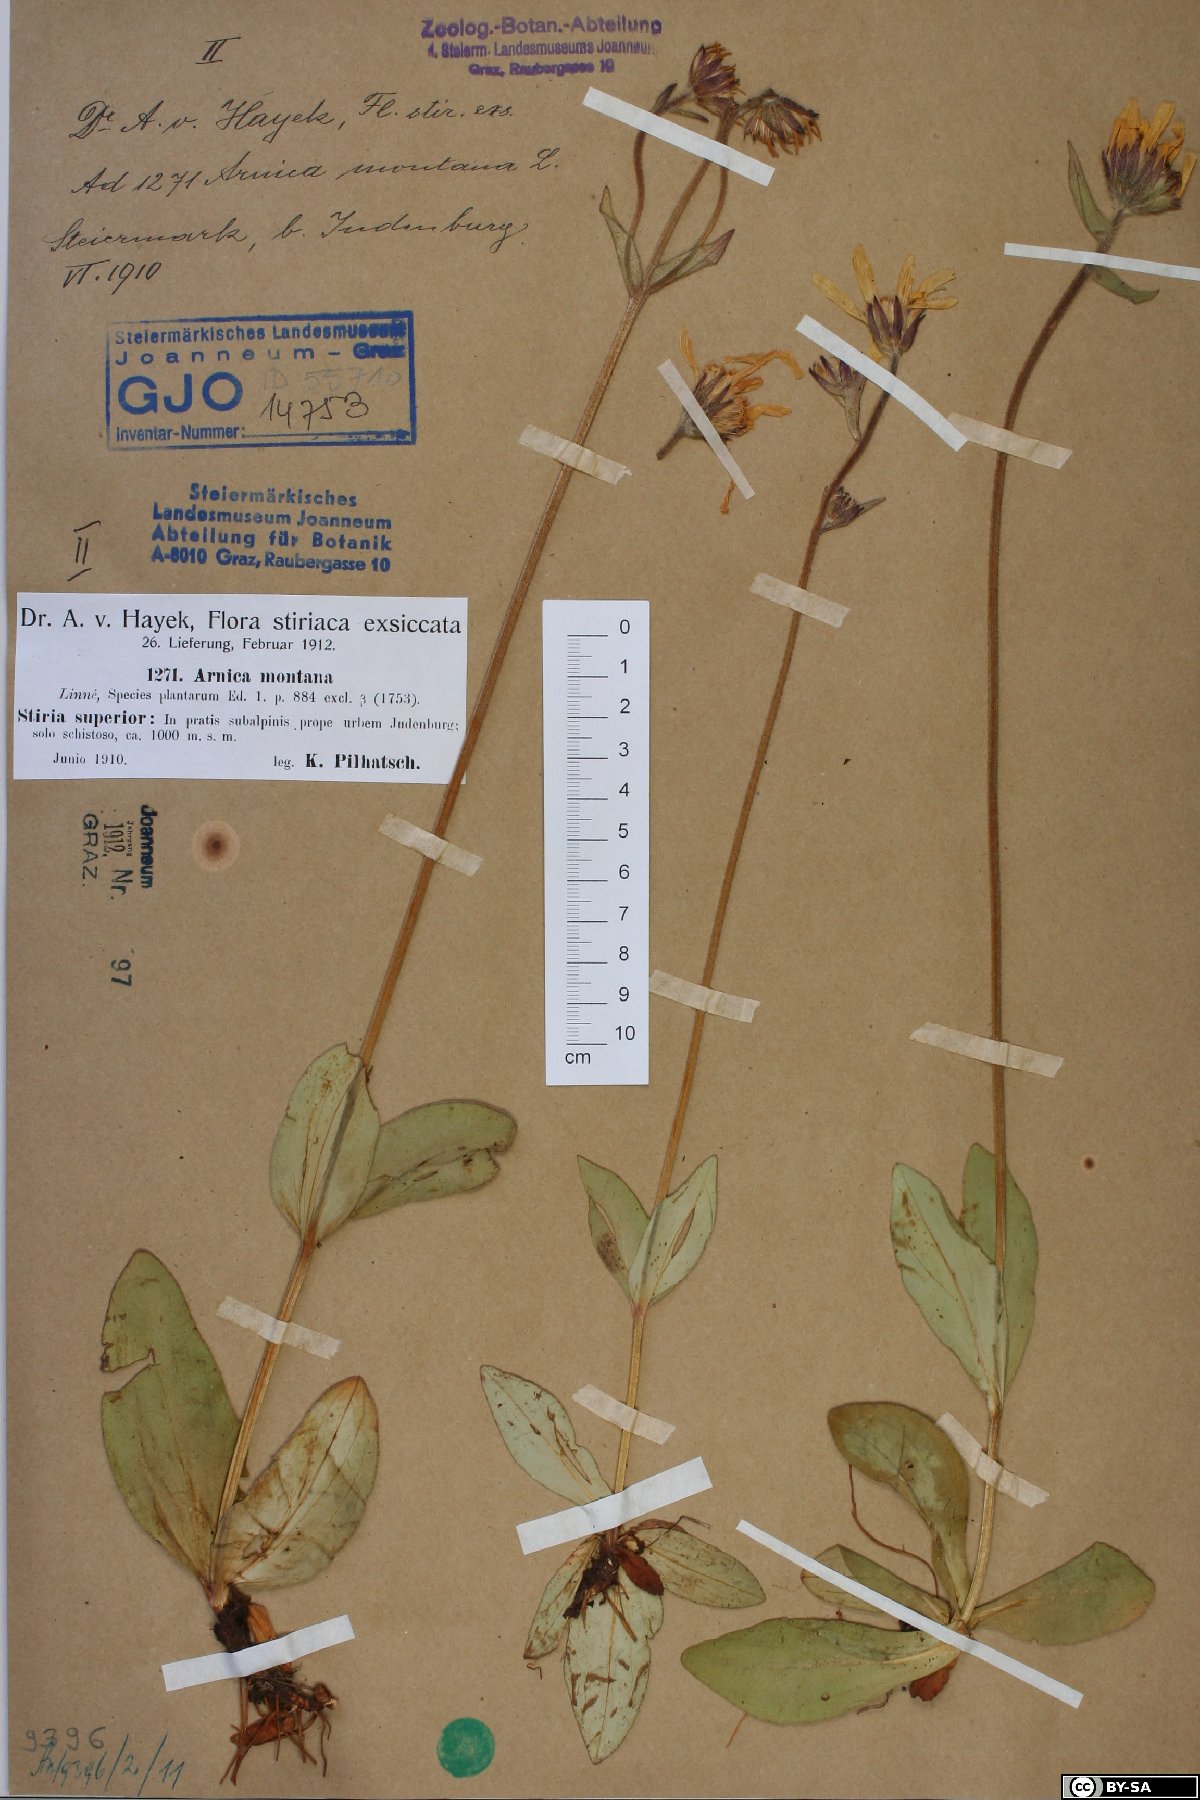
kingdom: Plantae
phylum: Tracheophyta
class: Magnoliopsida
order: Asterales
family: Asteraceae
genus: Arnica
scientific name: Arnica montana
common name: Leopard's bane
